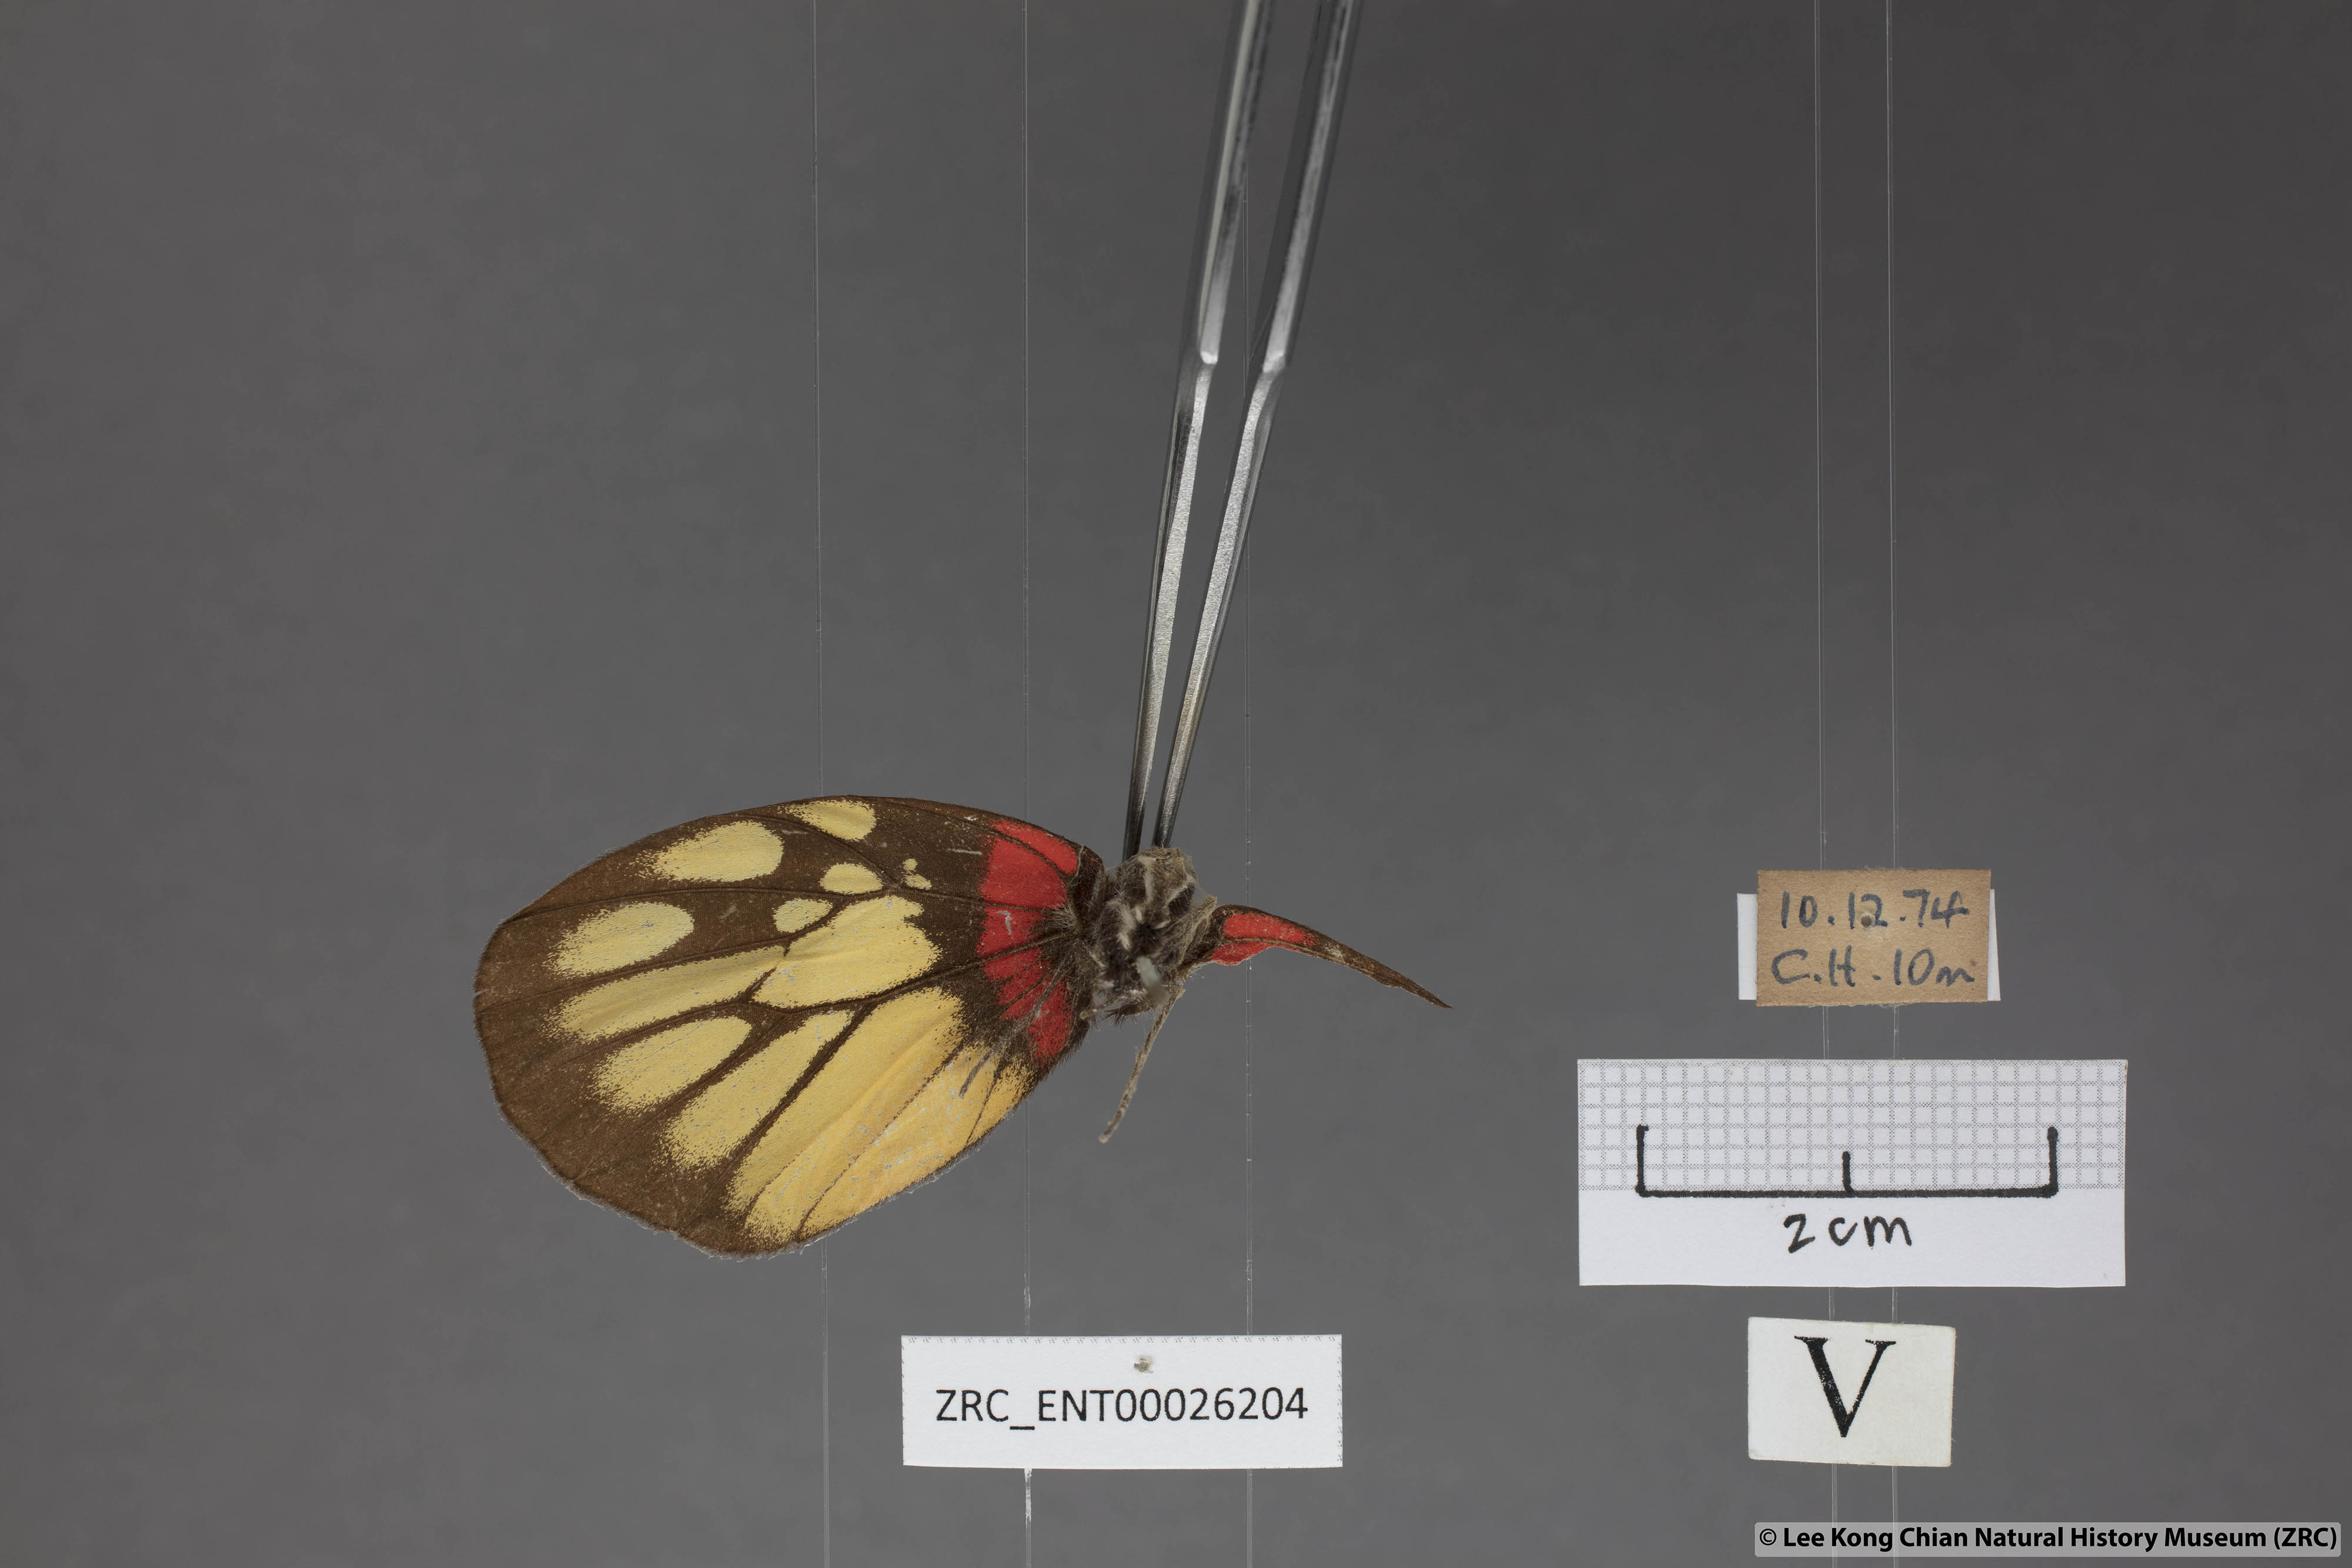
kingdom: Animalia
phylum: Arthropoda
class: Insecta
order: Lepidoptera
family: Pieridae
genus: Delias
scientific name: Delias pasithoe
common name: Red-base jezebel
